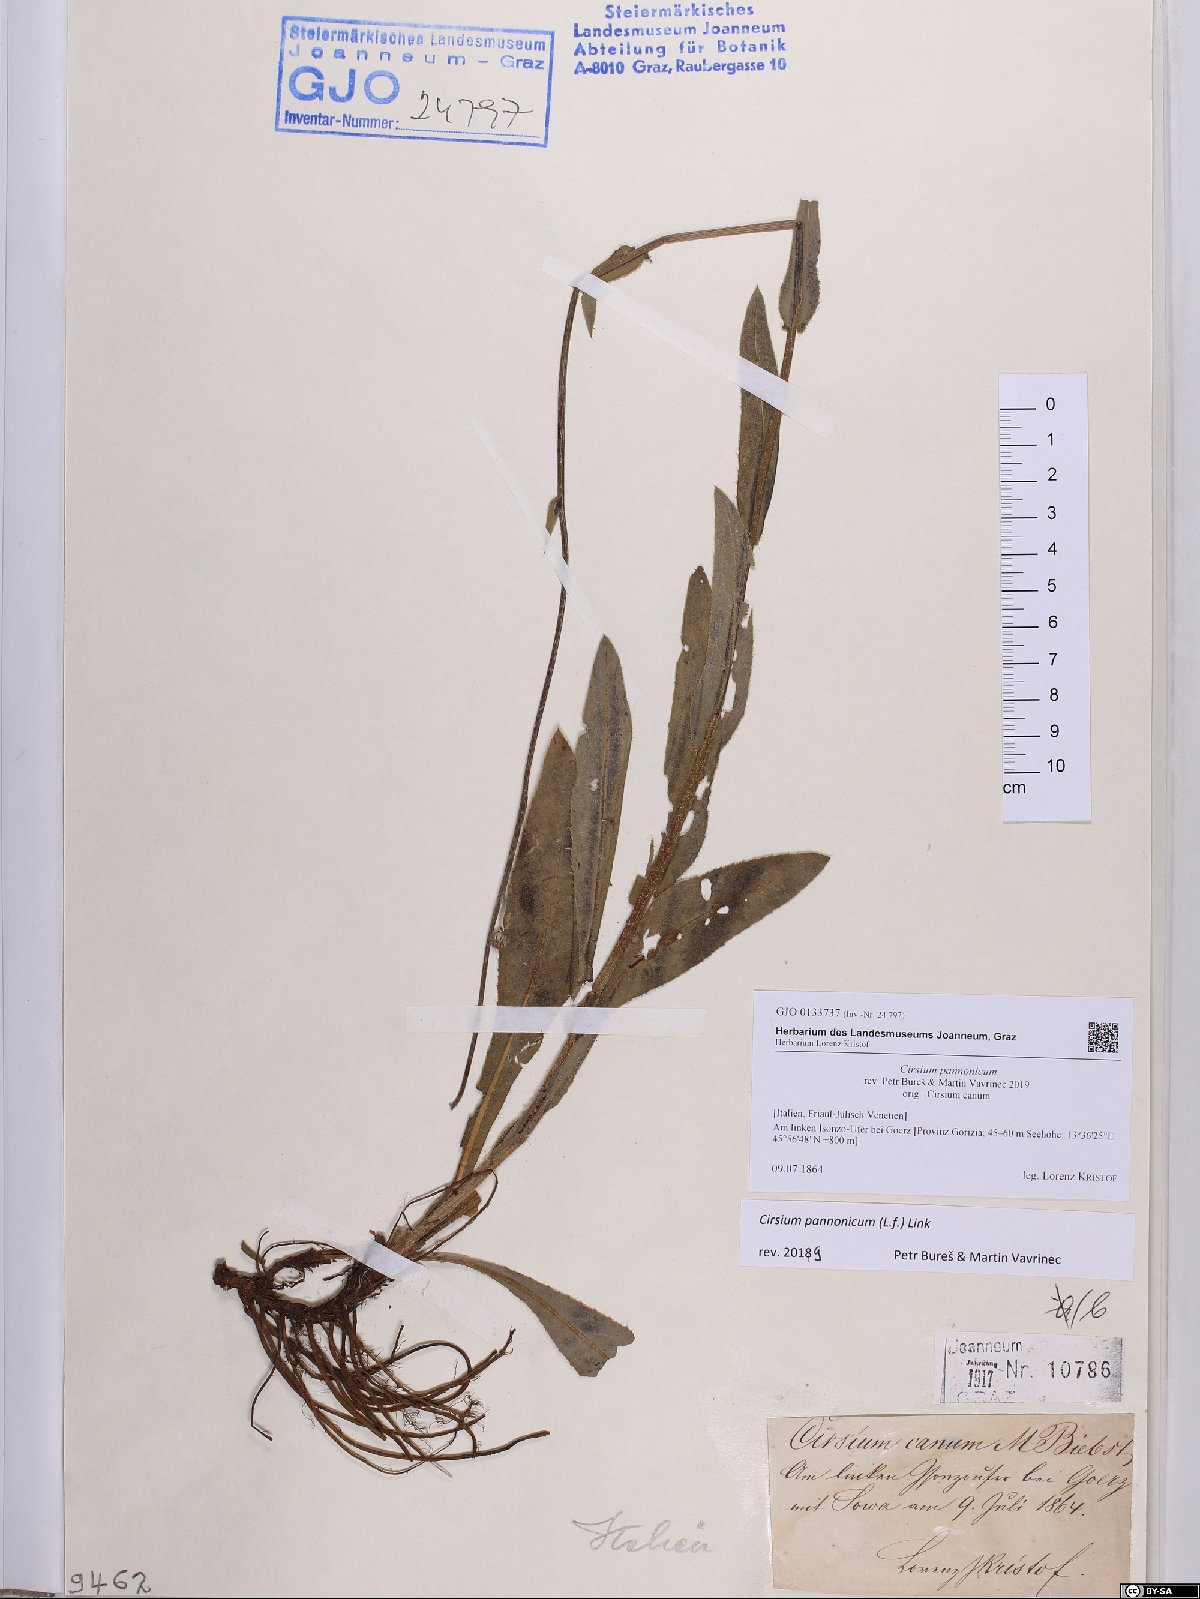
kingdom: Plantae
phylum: Tracheophyta
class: Magnoliopsida
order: Asterales
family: Asteraceae
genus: Cirsium
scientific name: Cirsium pannonicum
